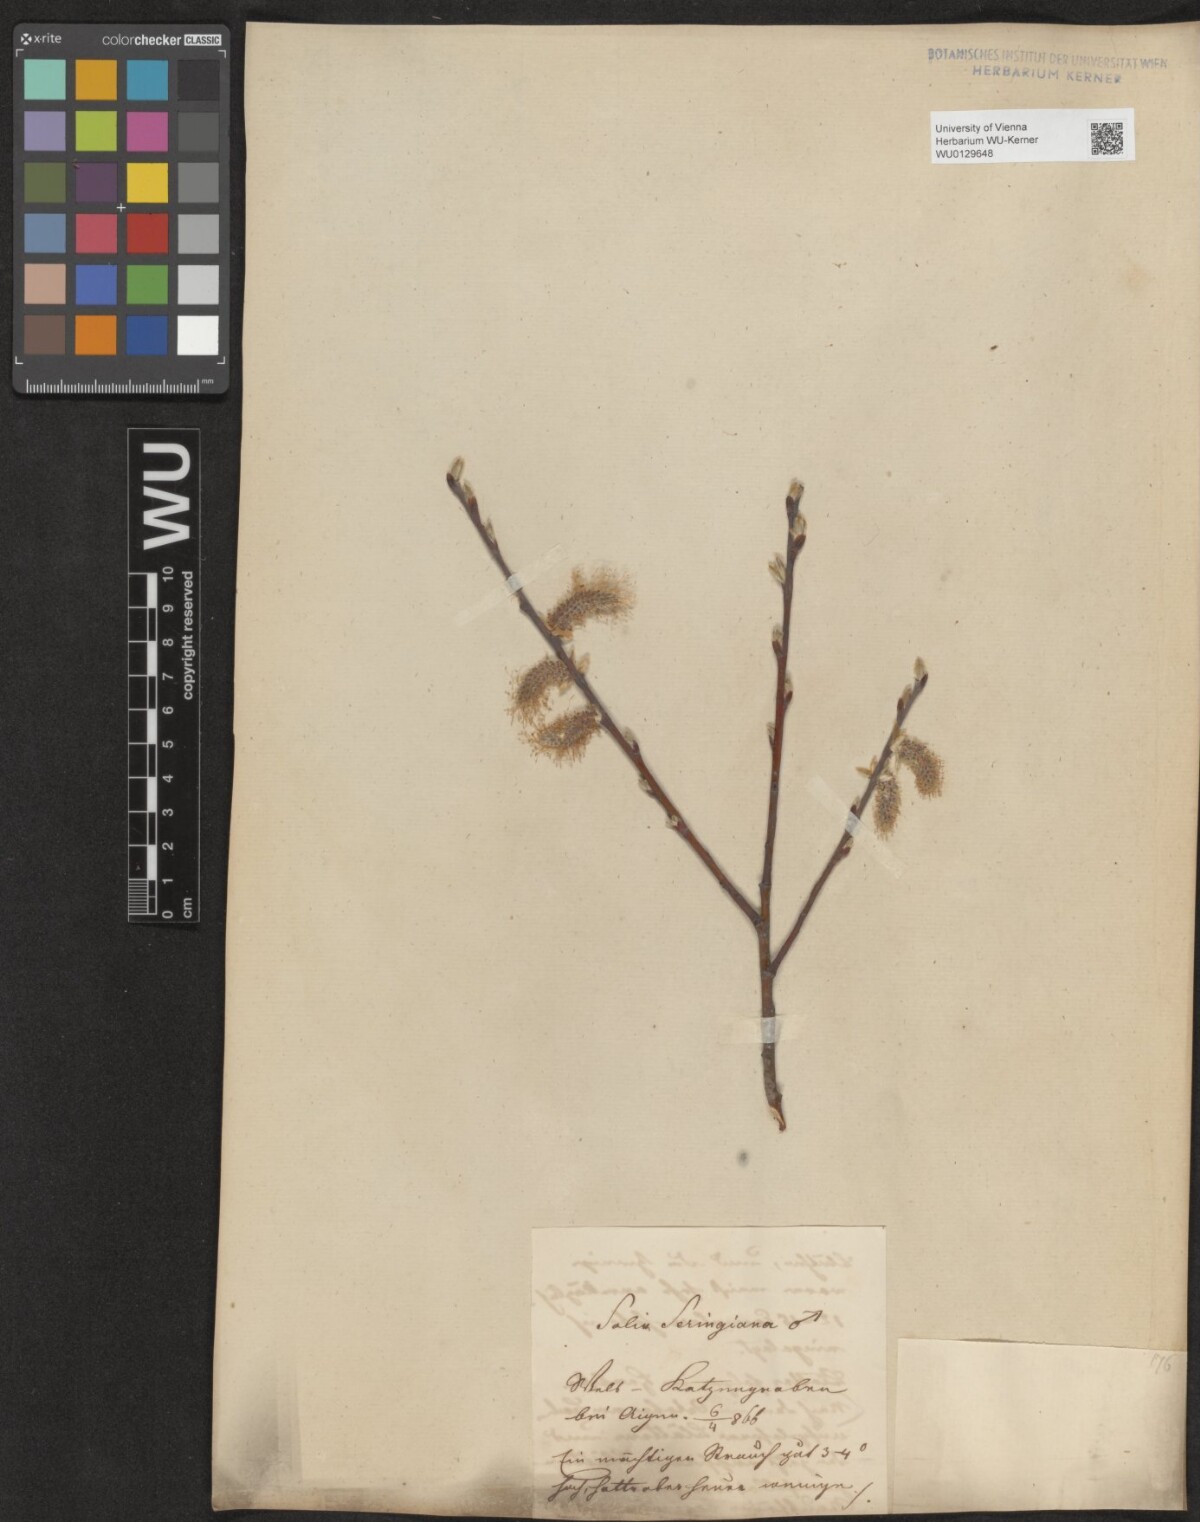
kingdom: Plantae
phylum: Tracheophyta
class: Magnoliopsida
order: Malpighiales
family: Salicaceae
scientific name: Salicaceae
